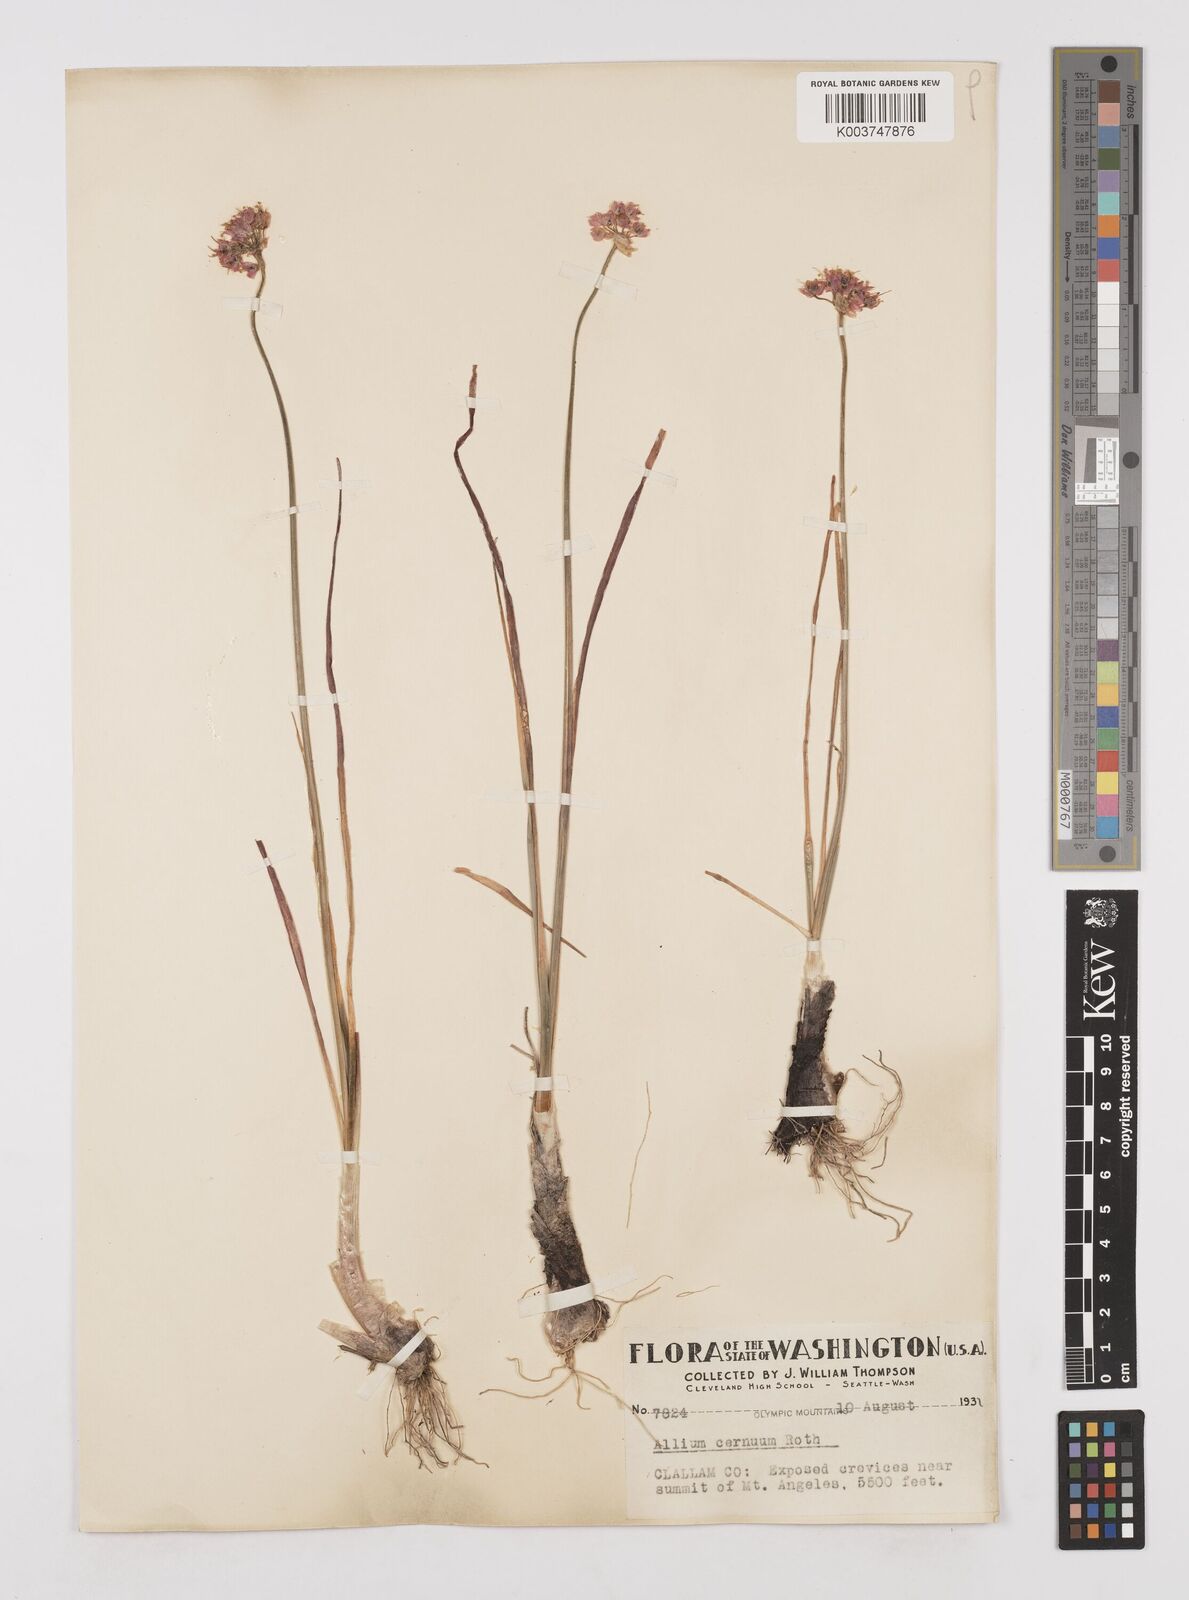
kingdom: Plantae
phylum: Tracheophyta
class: Liliopsida
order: Asparagales
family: Amaryllidaceae
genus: Allium
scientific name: Allium cernuum
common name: Nodding onion
